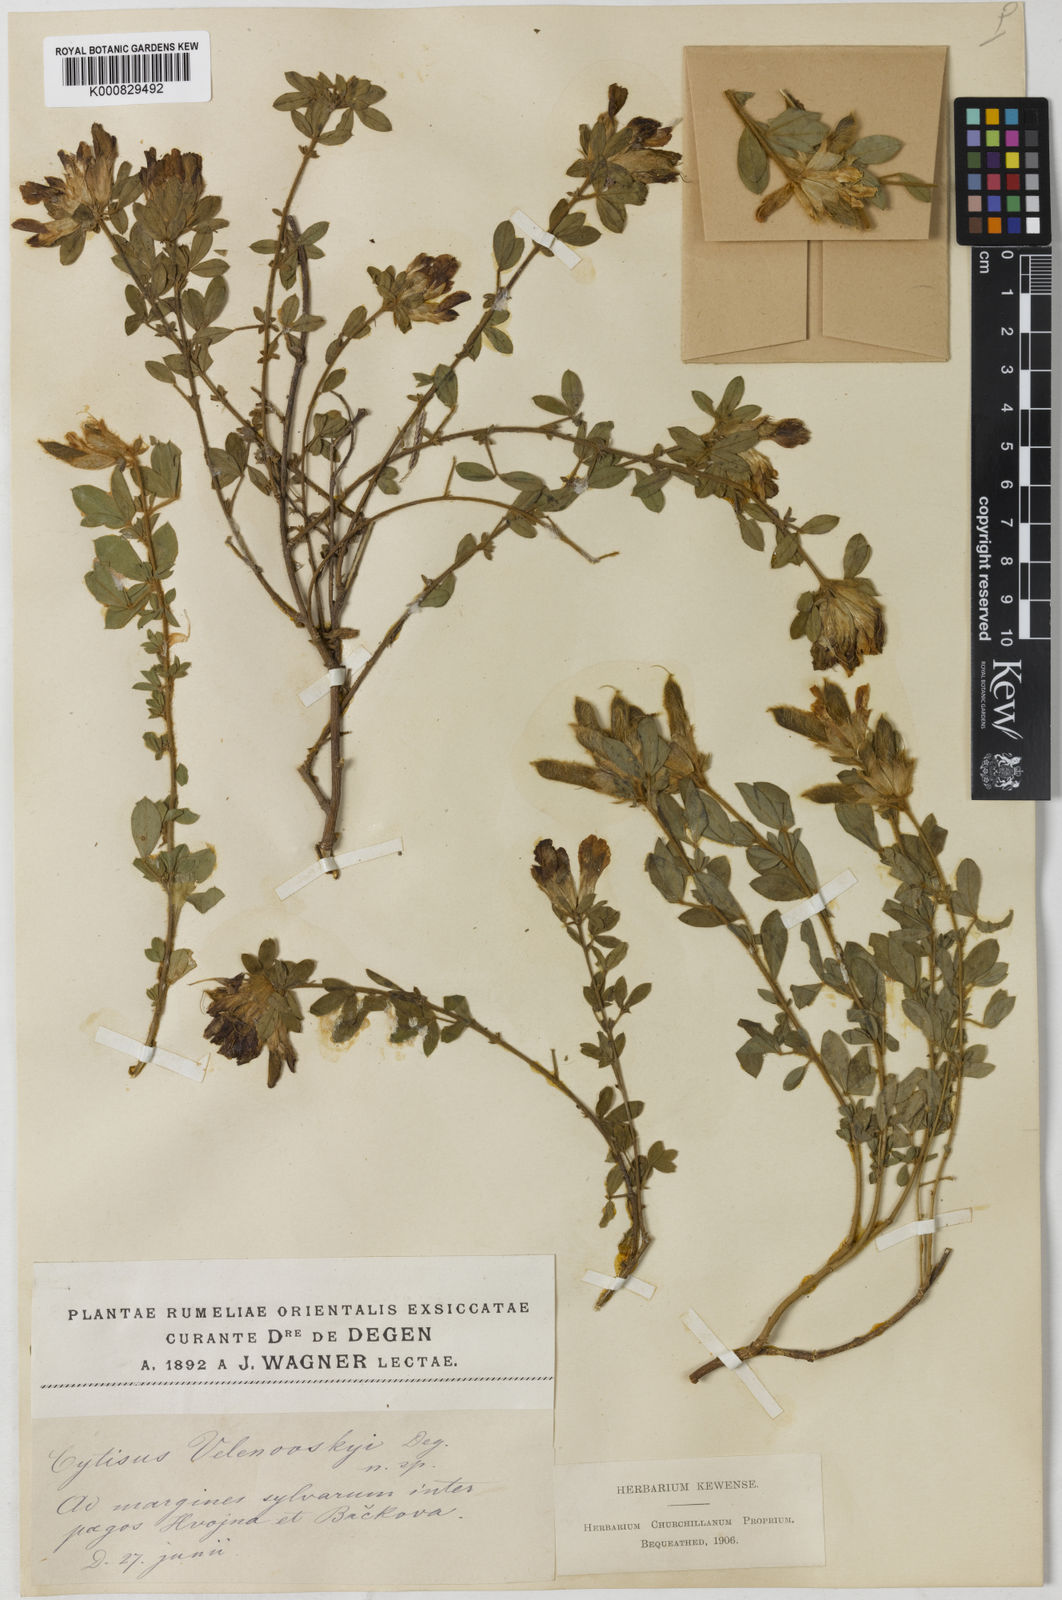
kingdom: Plantae
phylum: Tracheophyta
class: Magnoliopsida
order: Fabales
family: Fabaceae
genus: Chamaecytisus
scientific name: Chamaecytisus frivaldszkyanus
